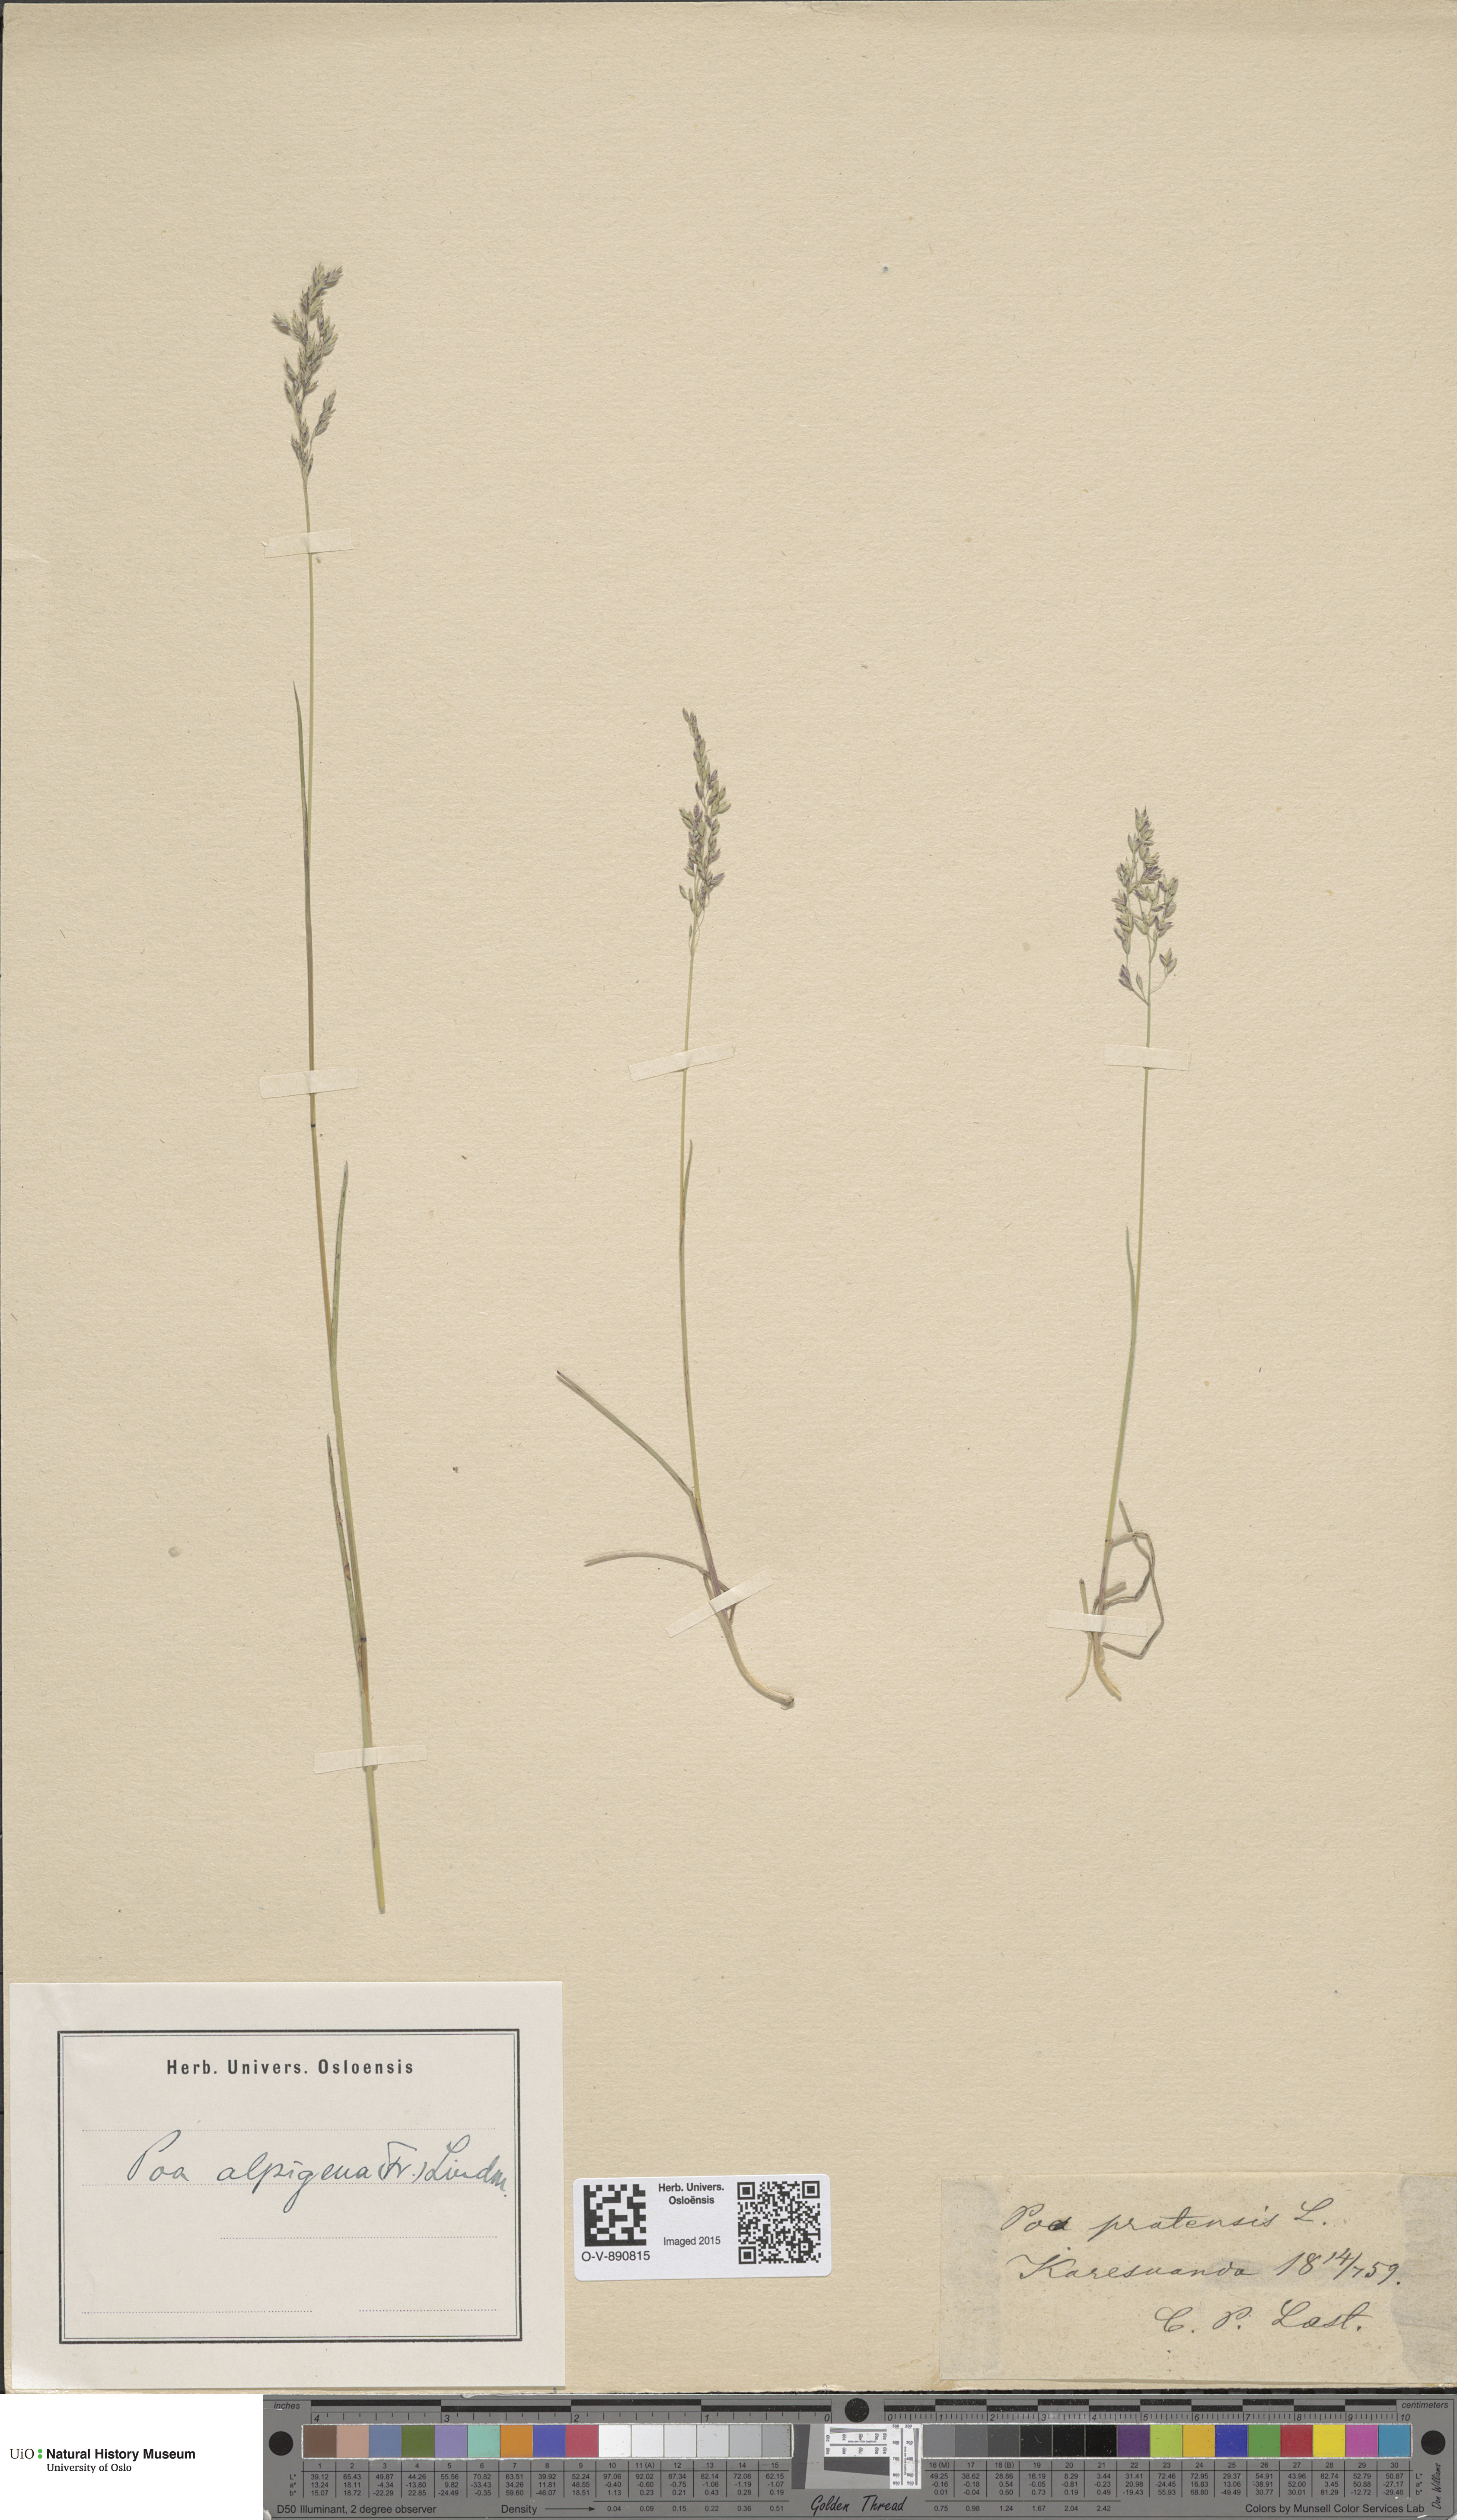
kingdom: Plantae
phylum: Tracheophyta
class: Liliopsida
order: Poales
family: Poaceae
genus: Poa
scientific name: Poa alpigena
